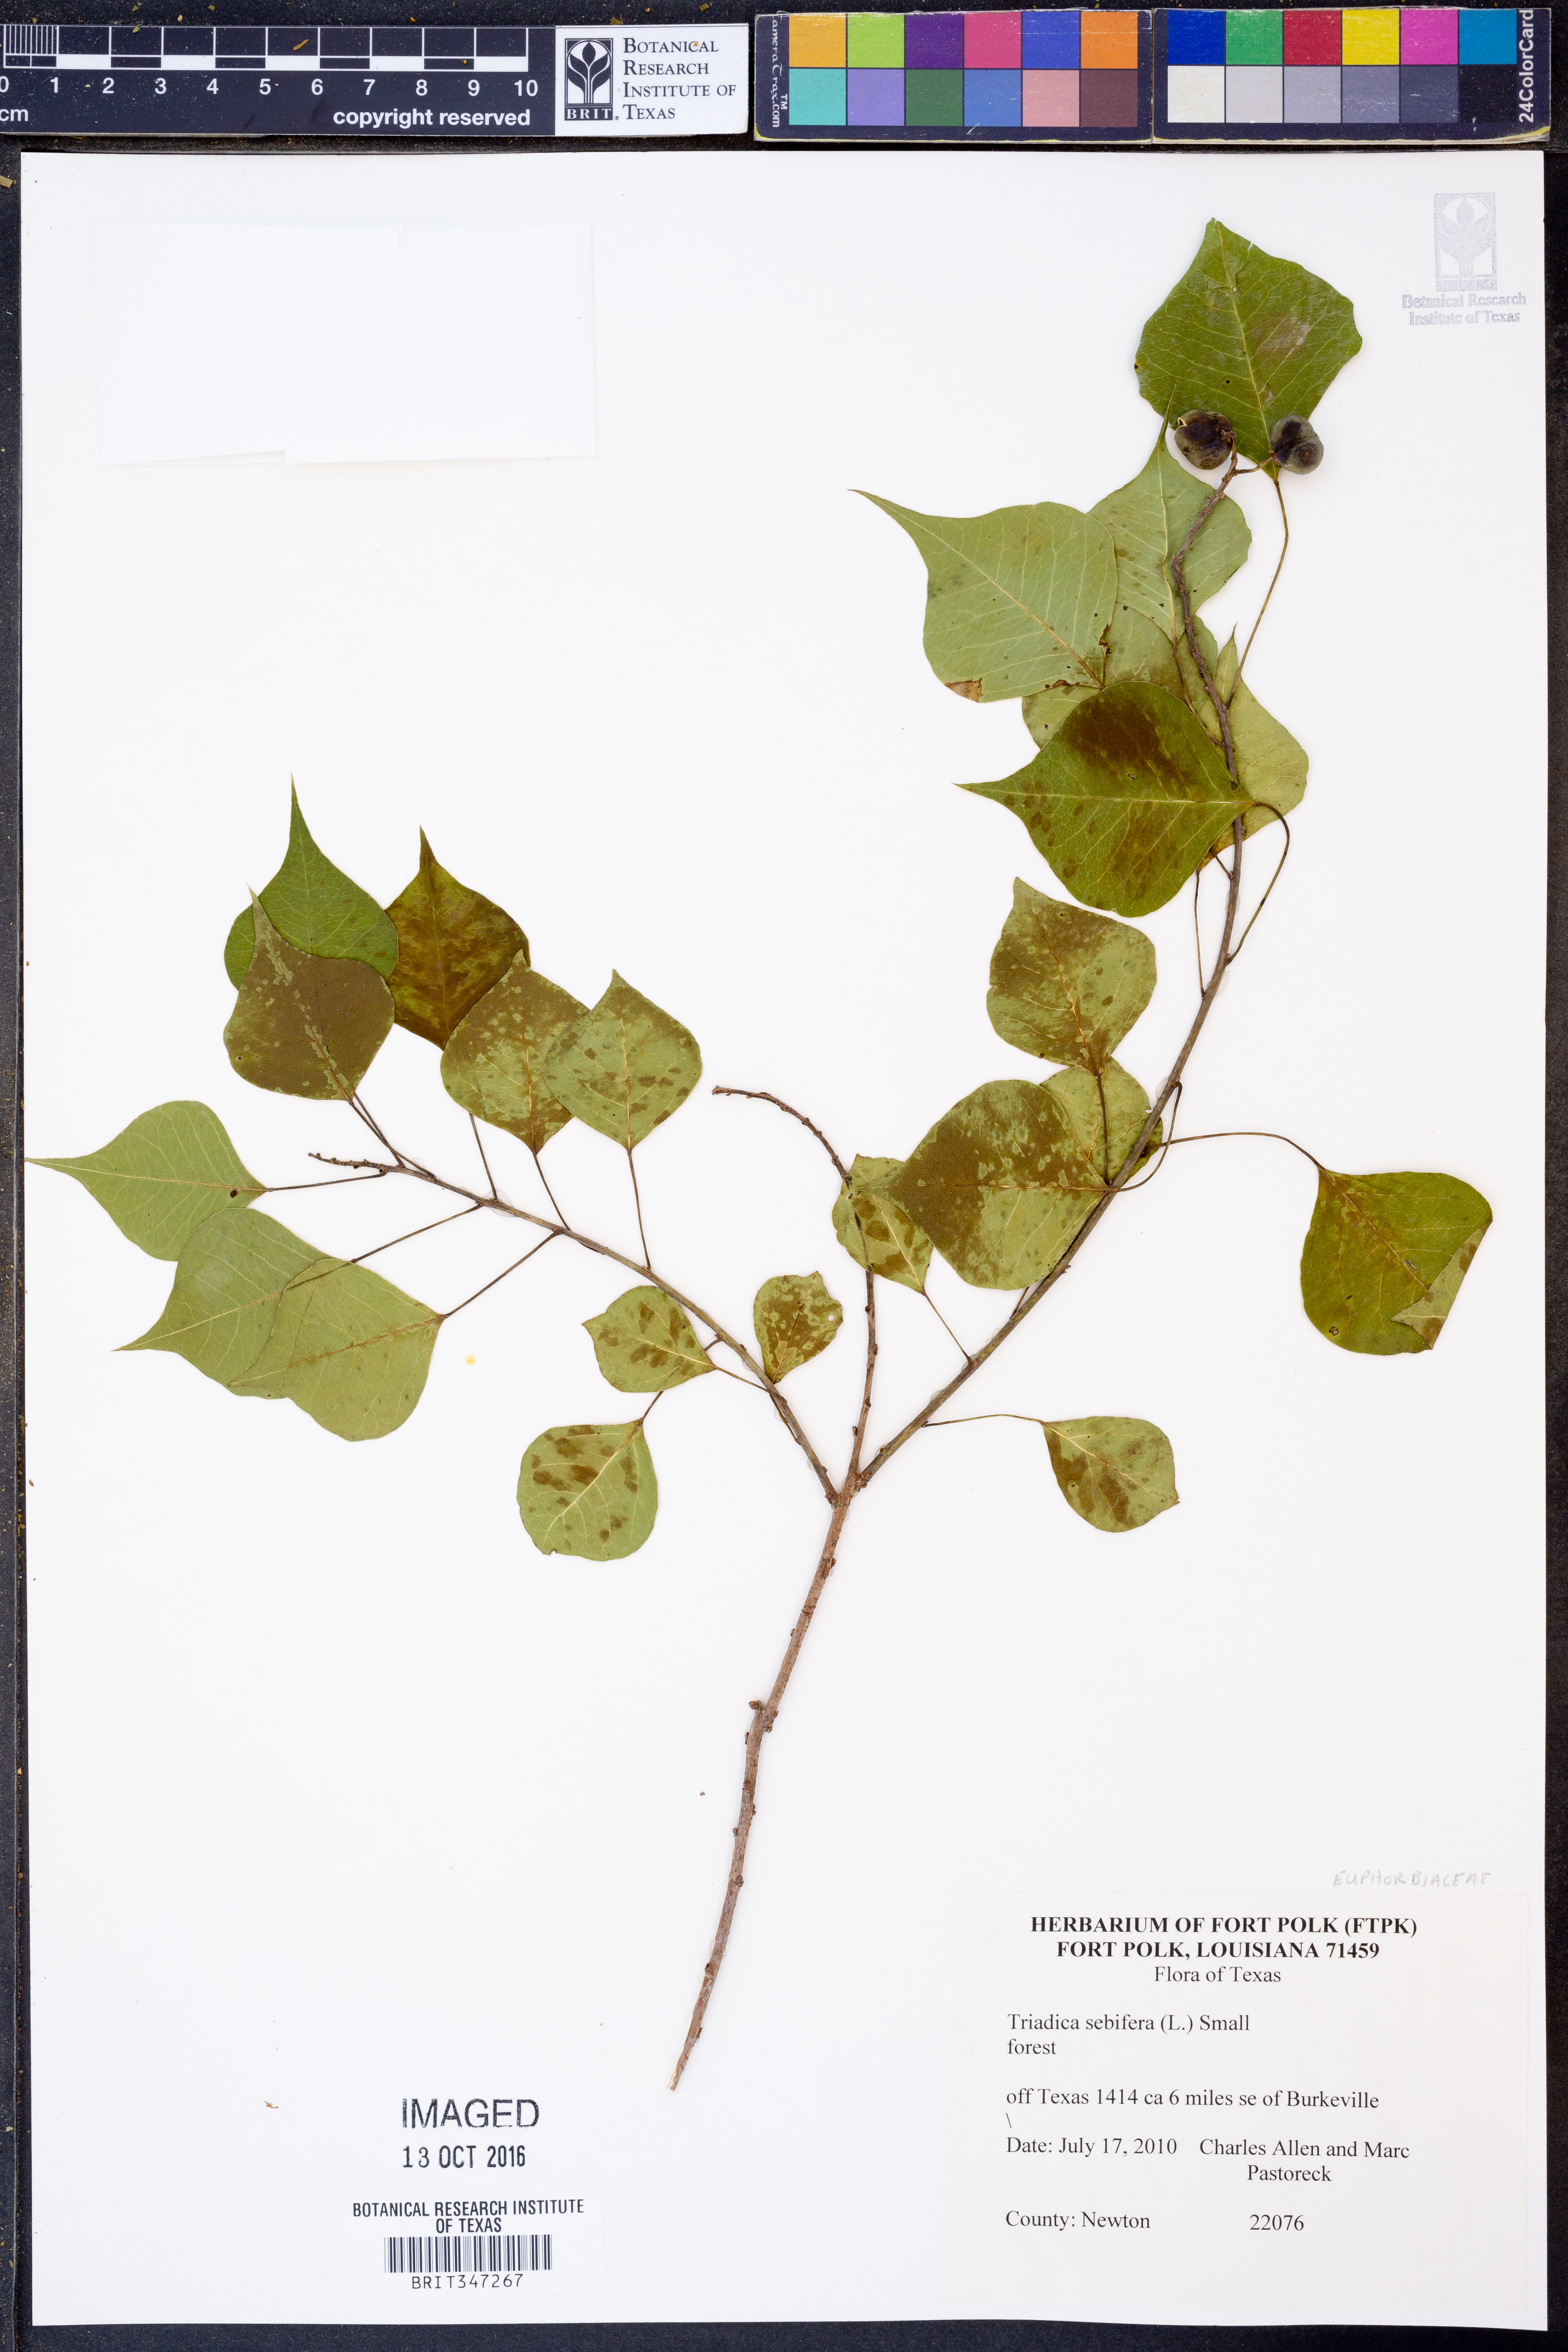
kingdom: Plantae
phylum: Tracheophyta
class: Magnoliopsida
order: Malpighiales
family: Euphorbiaceae
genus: Triadica
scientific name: Triadica sebifera
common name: Chinese tallow
